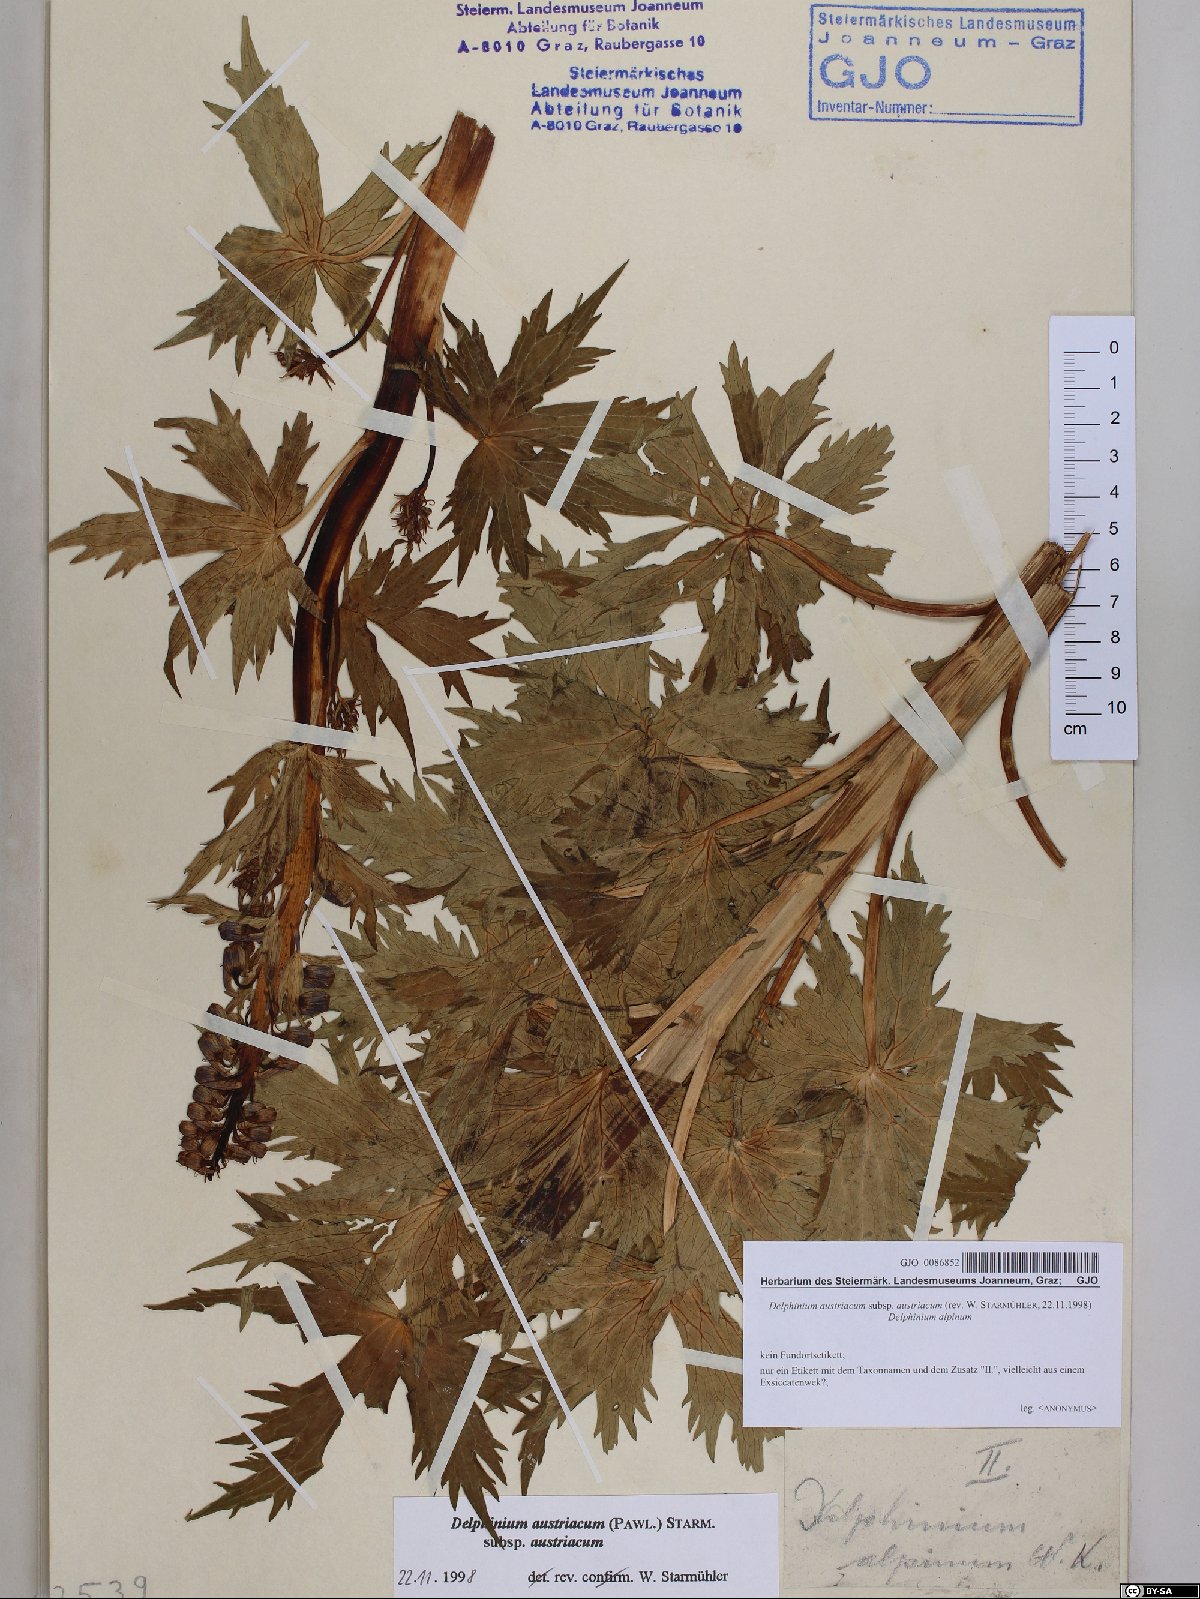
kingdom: Plantae
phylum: Tracheophyta
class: Magnoliopsida
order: Ranunculales
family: Ranunculaceae
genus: Delphinium
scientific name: Delphinium austriacum
